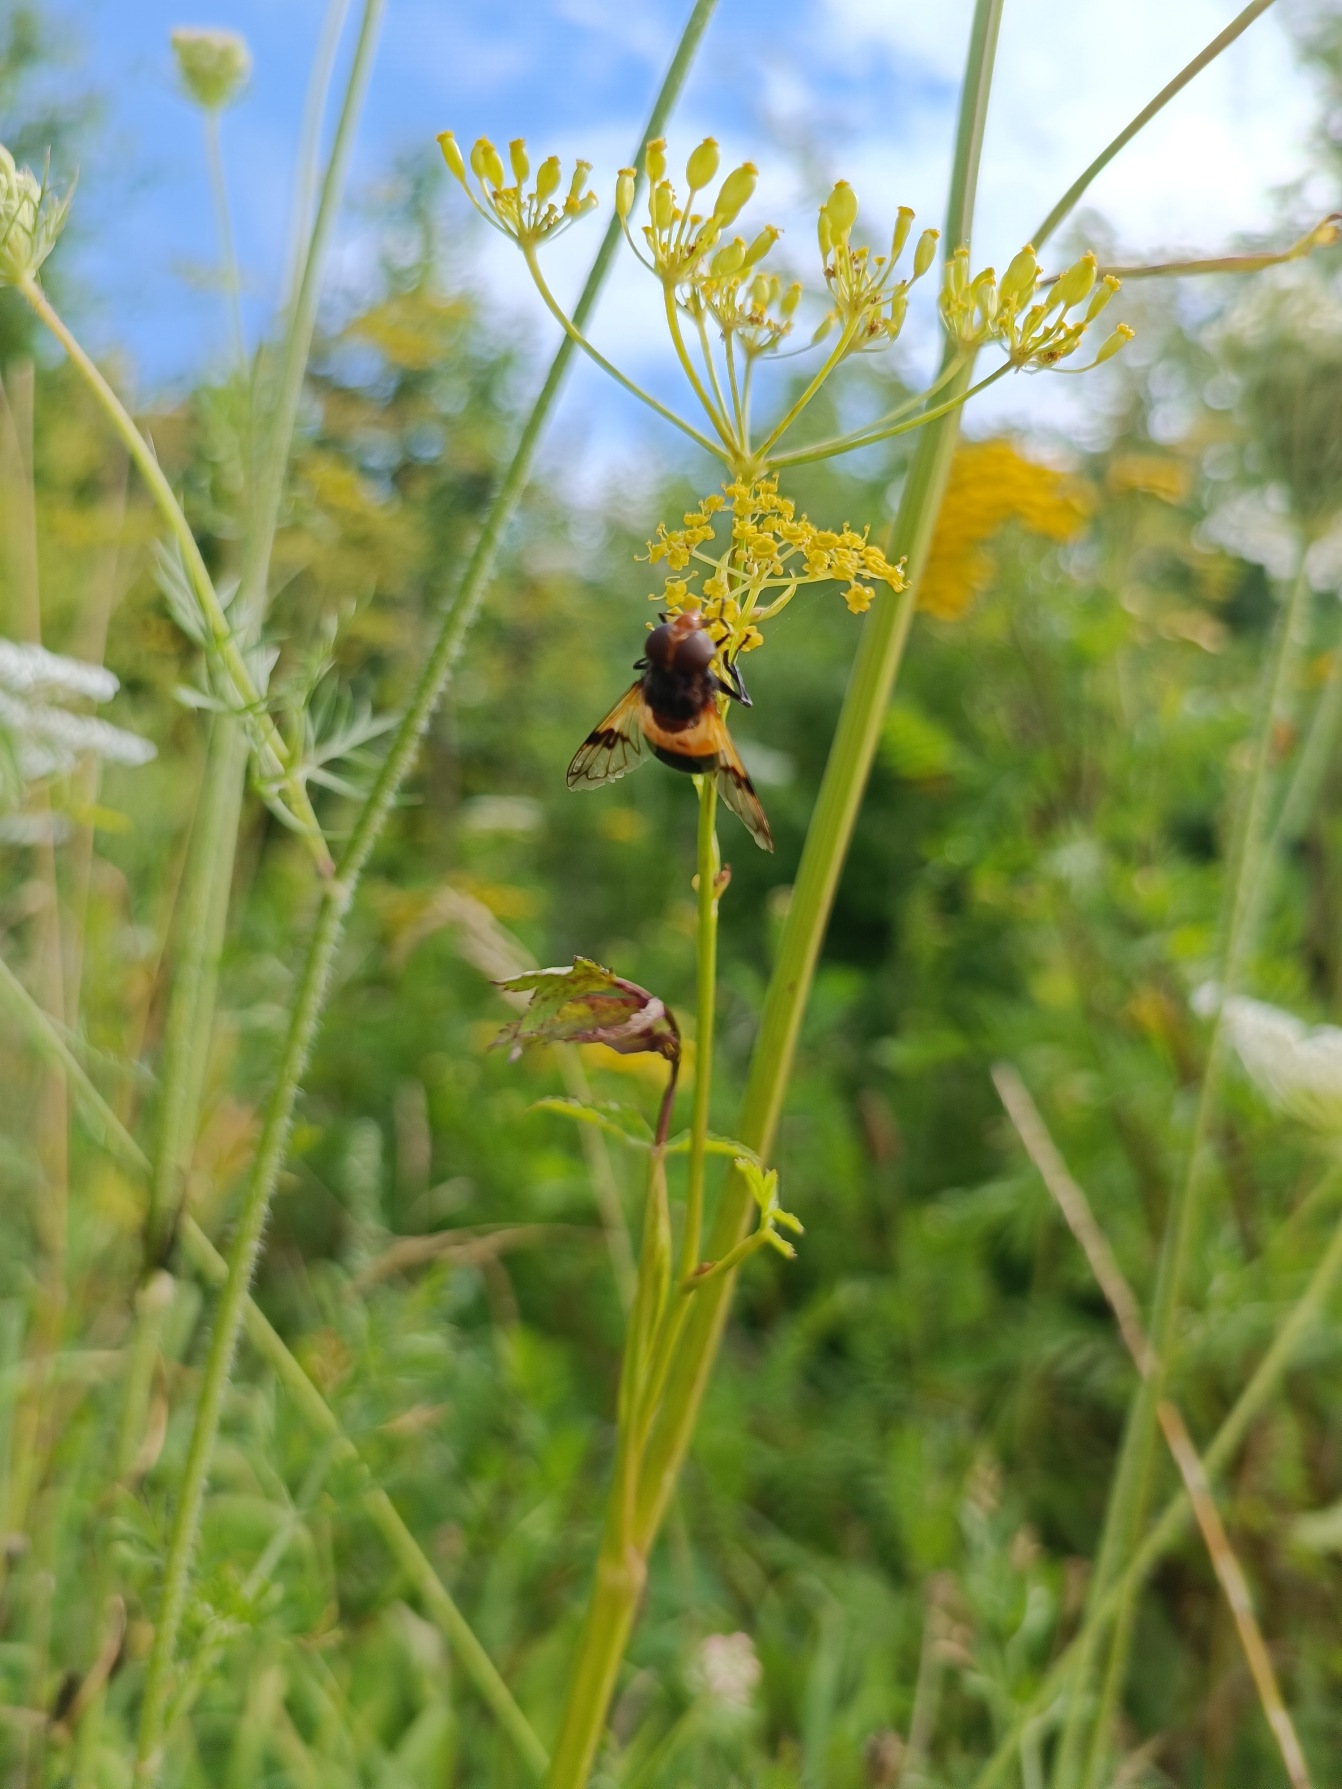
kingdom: Animalia
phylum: Arthropoda
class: Insecta
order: Diptera
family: Syrphidae
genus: Volucella
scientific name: Volucella pellucens
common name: Hvidbåndet humlesvirreflue
